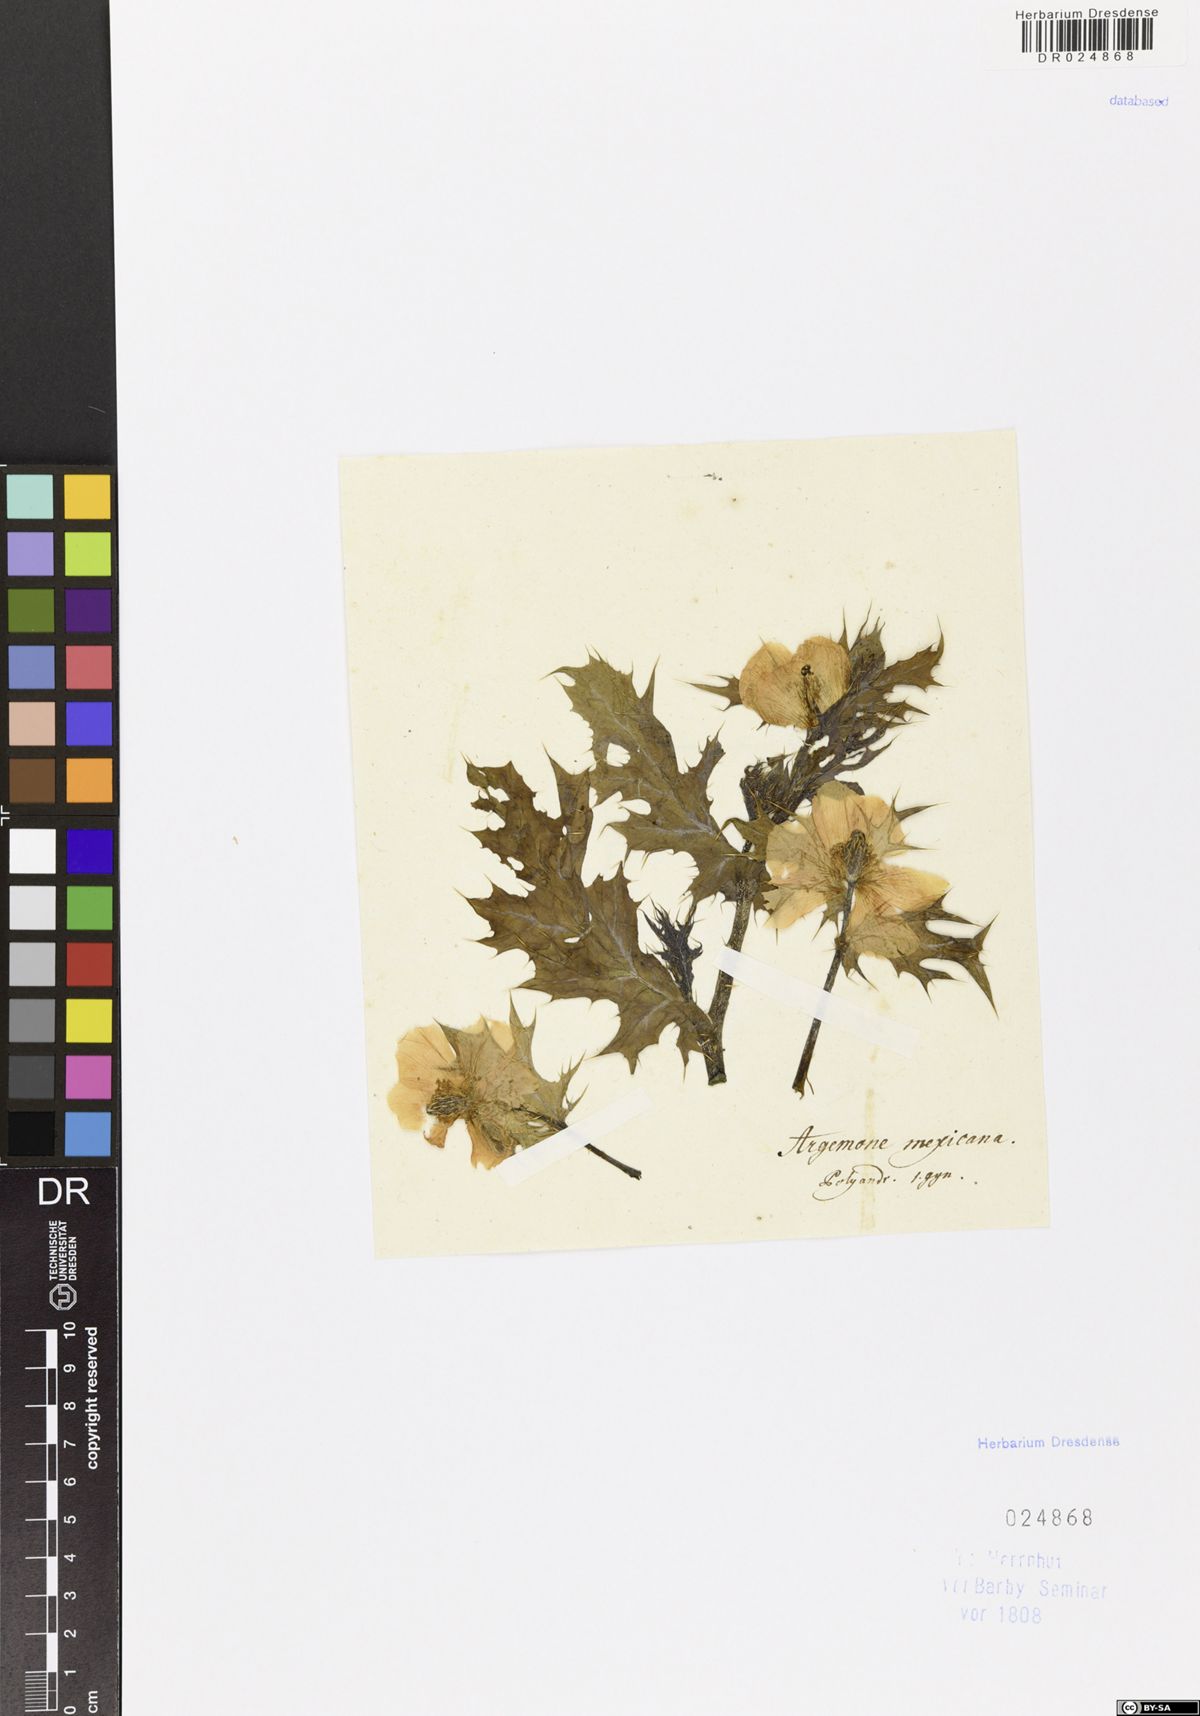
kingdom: Plantae
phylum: Tracheophyta
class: Magnoliopsida
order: Ranunculales
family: Papaveraceae
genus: Argemone
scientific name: Argemone mexicana
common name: Mexican poppy
